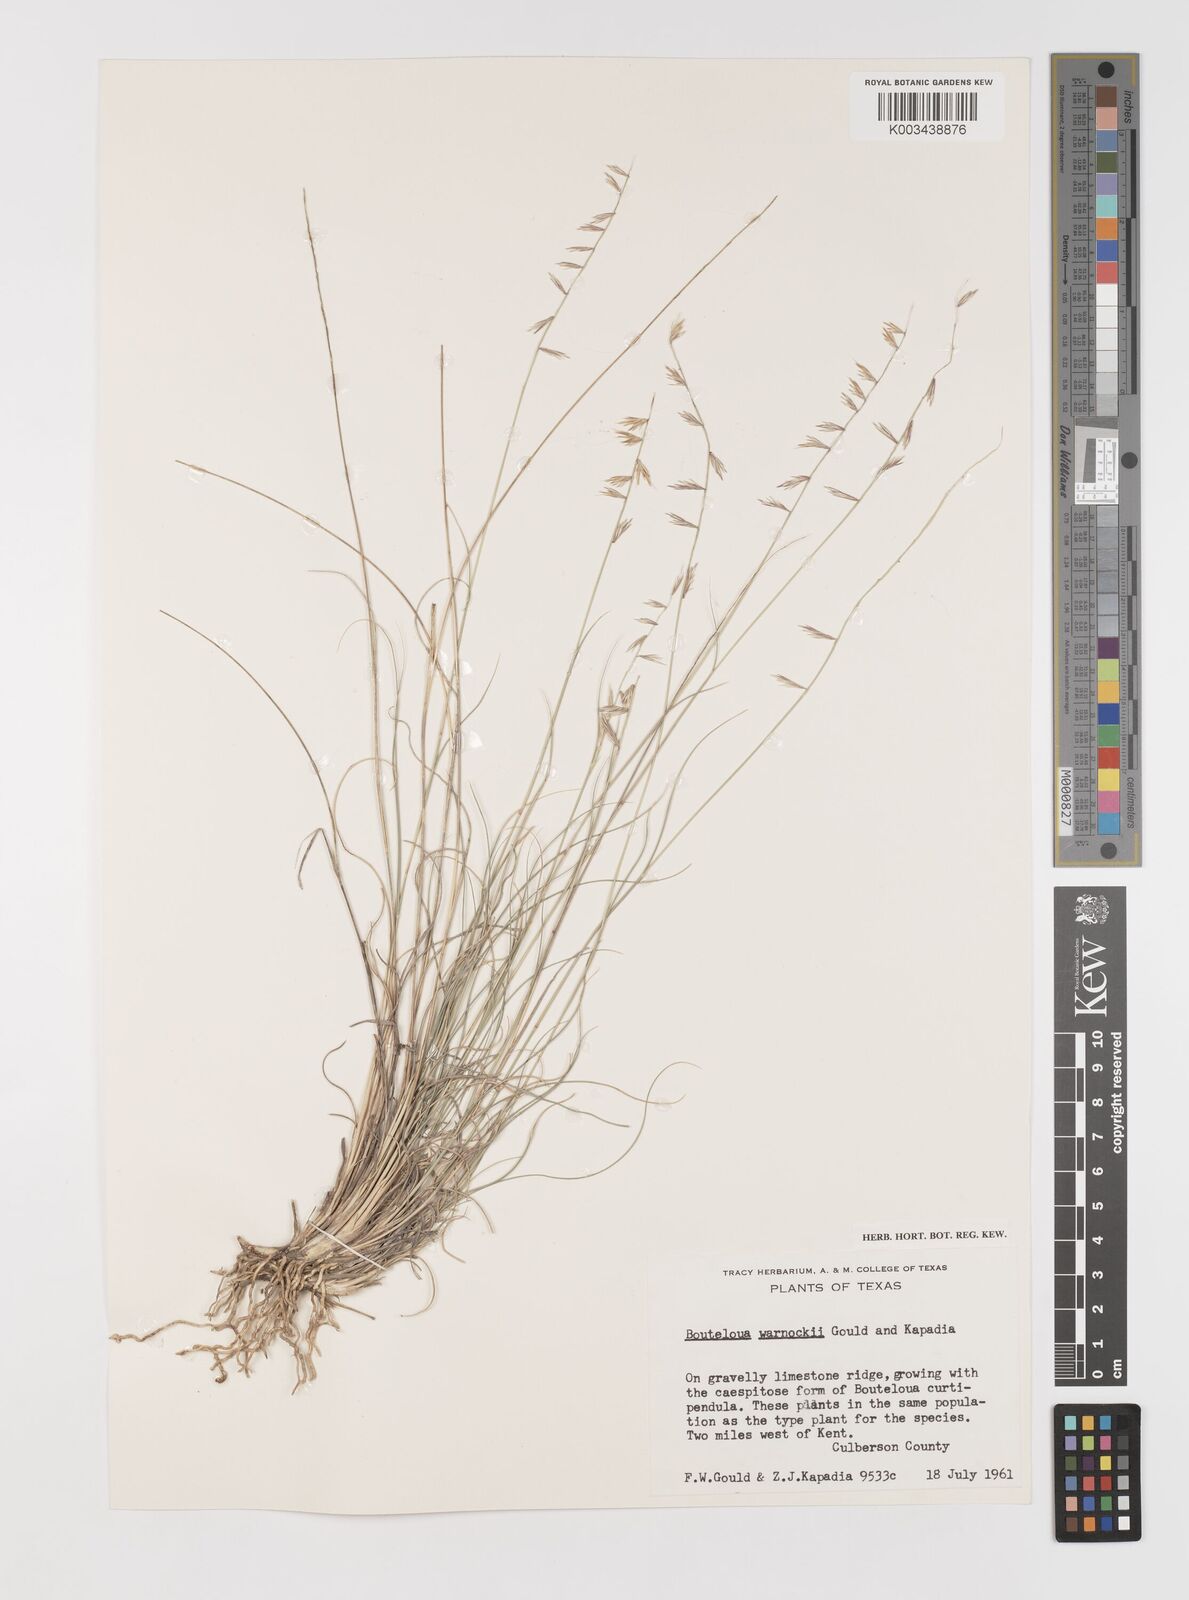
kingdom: Plantae
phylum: Tracheophyta
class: Liliopsida
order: Poales
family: Poaceae
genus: Bouteloua
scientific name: Bouteloua warnockii
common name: Warnock's grama
